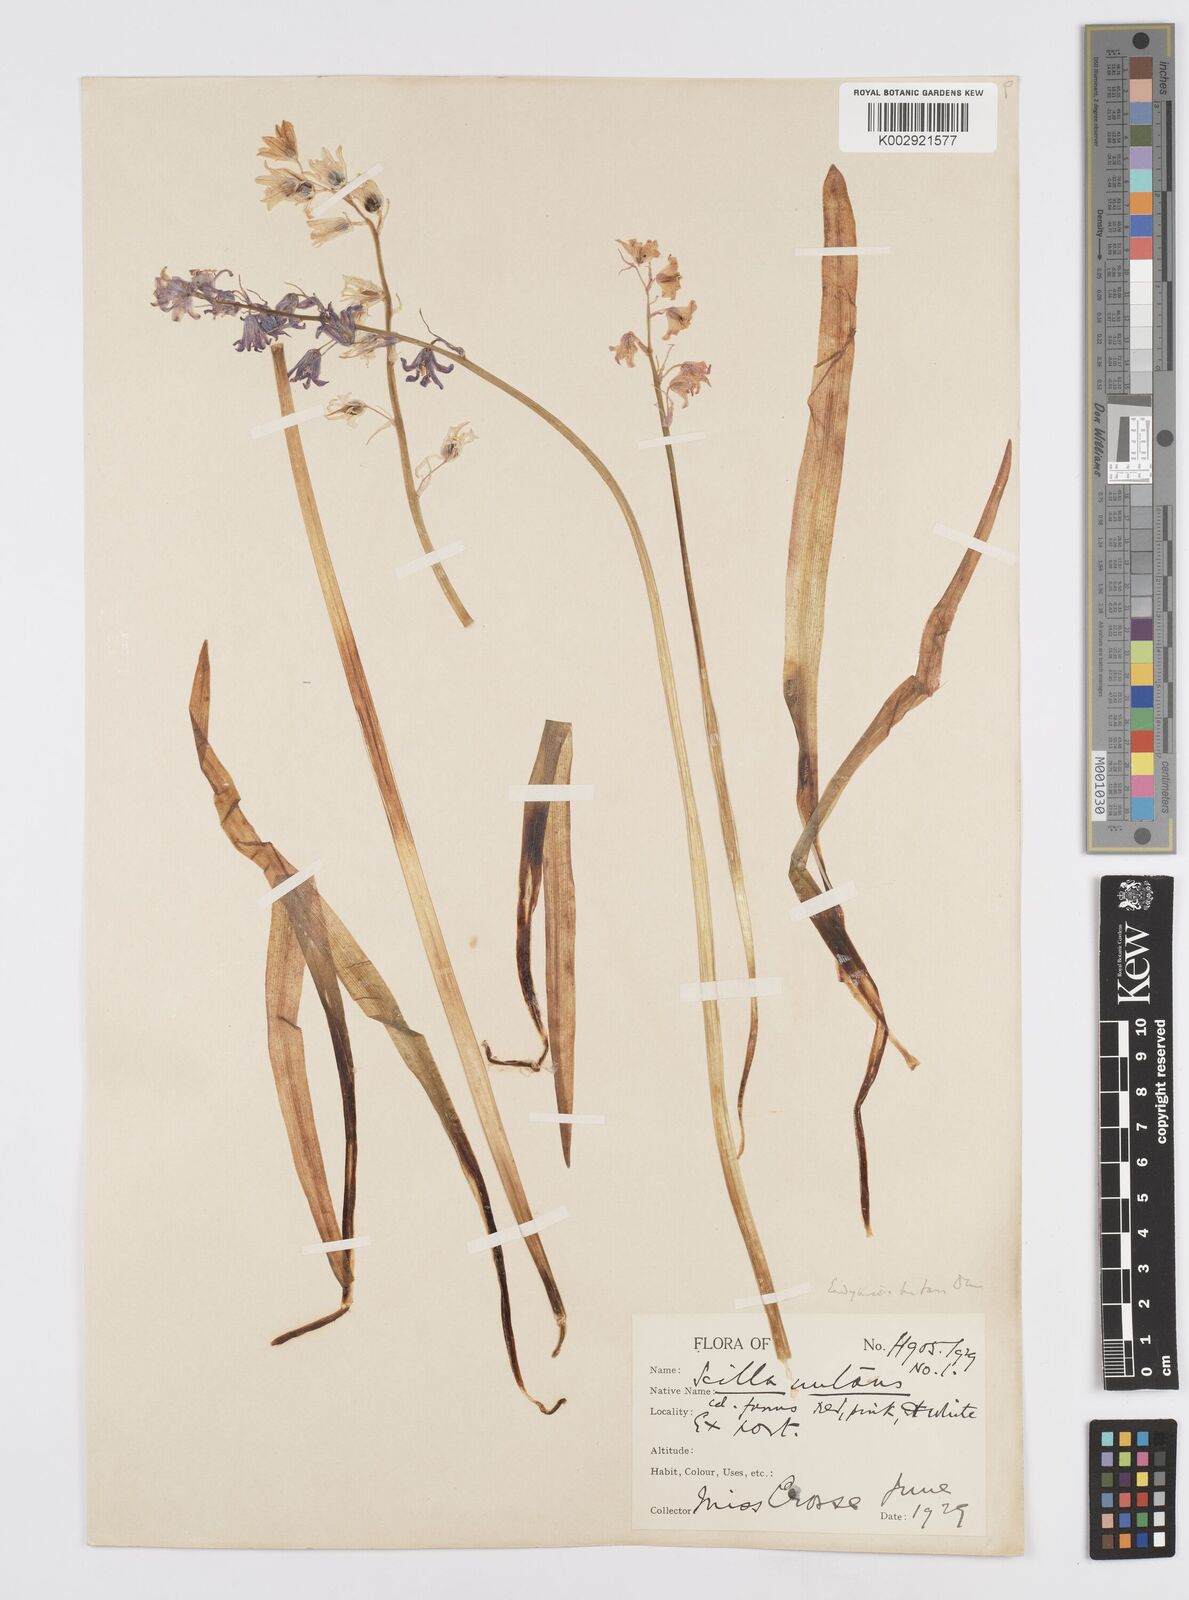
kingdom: Plantae
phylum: Tracheophyta
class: Liliopsida
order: Asparagales
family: Asparagaceae
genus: Hyacinthoides
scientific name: Hyacinthoides non-scripta
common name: Bluebell
